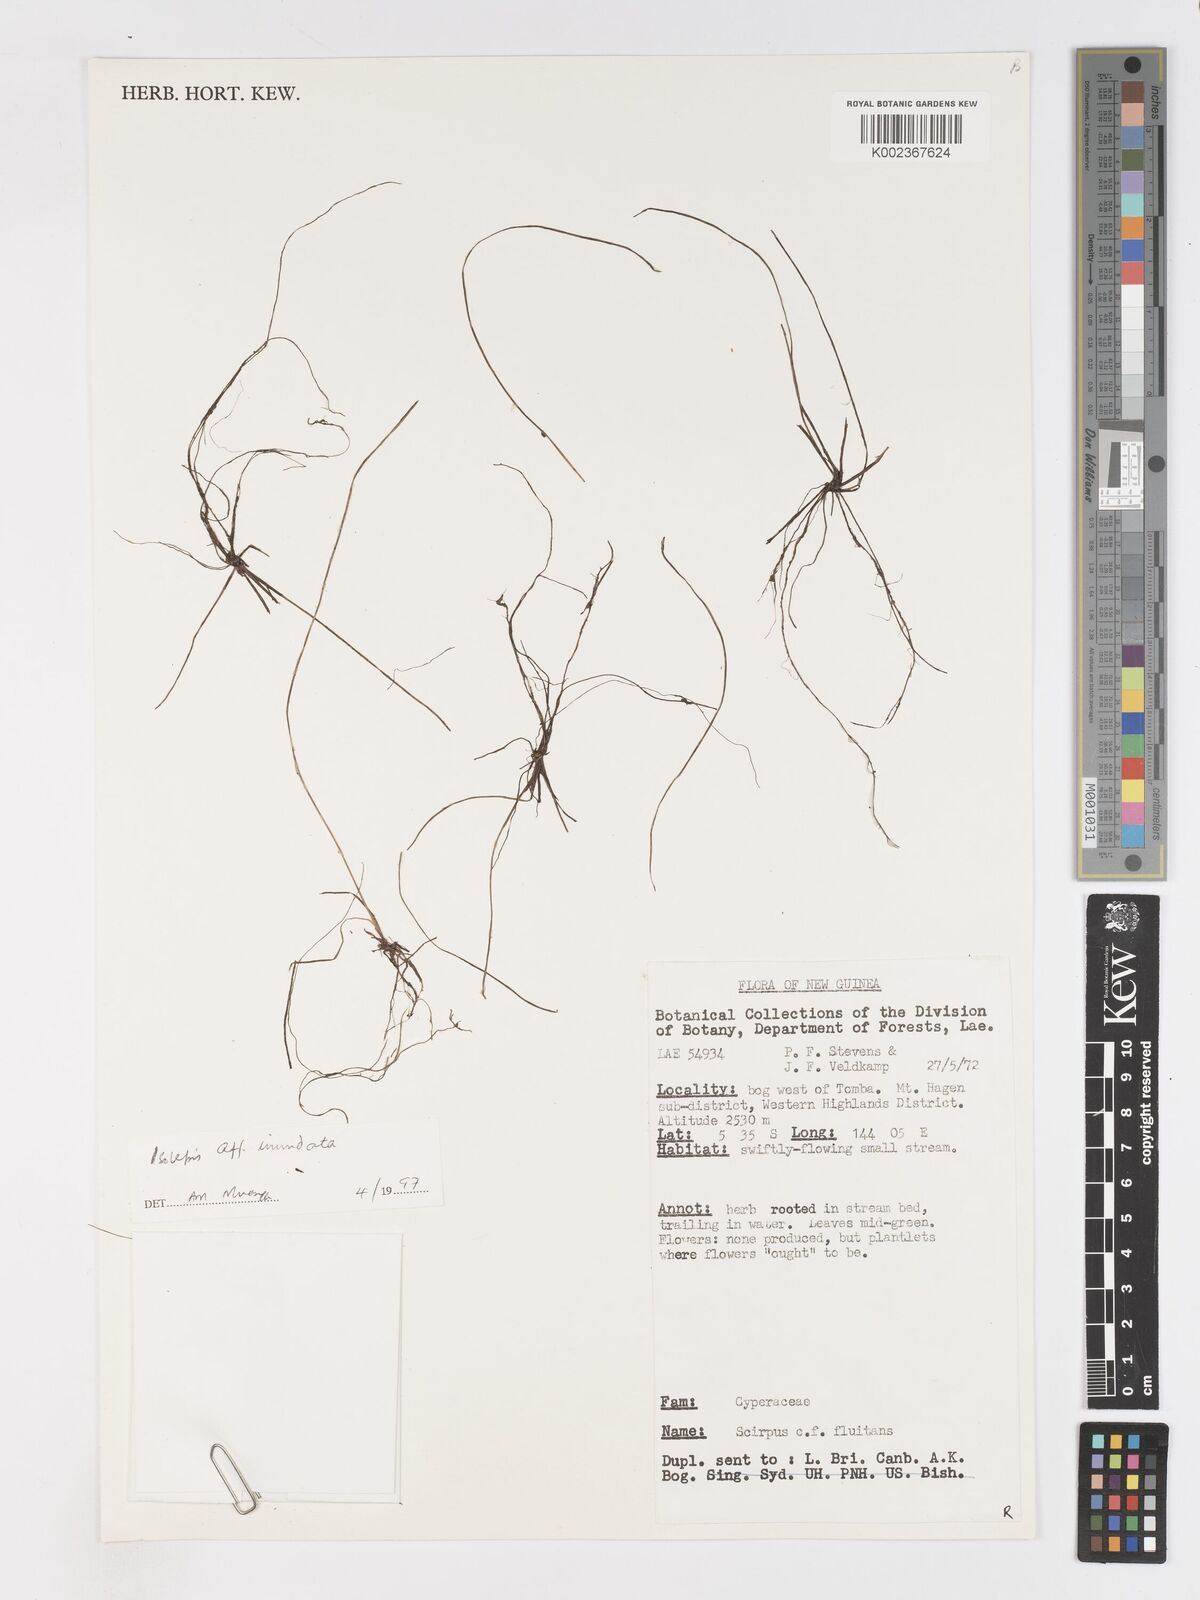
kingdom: Plantae
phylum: Tracheophyta
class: Liliopsida
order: Poales
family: Cyperaceae
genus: Isolepis
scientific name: Isolepis inundata
